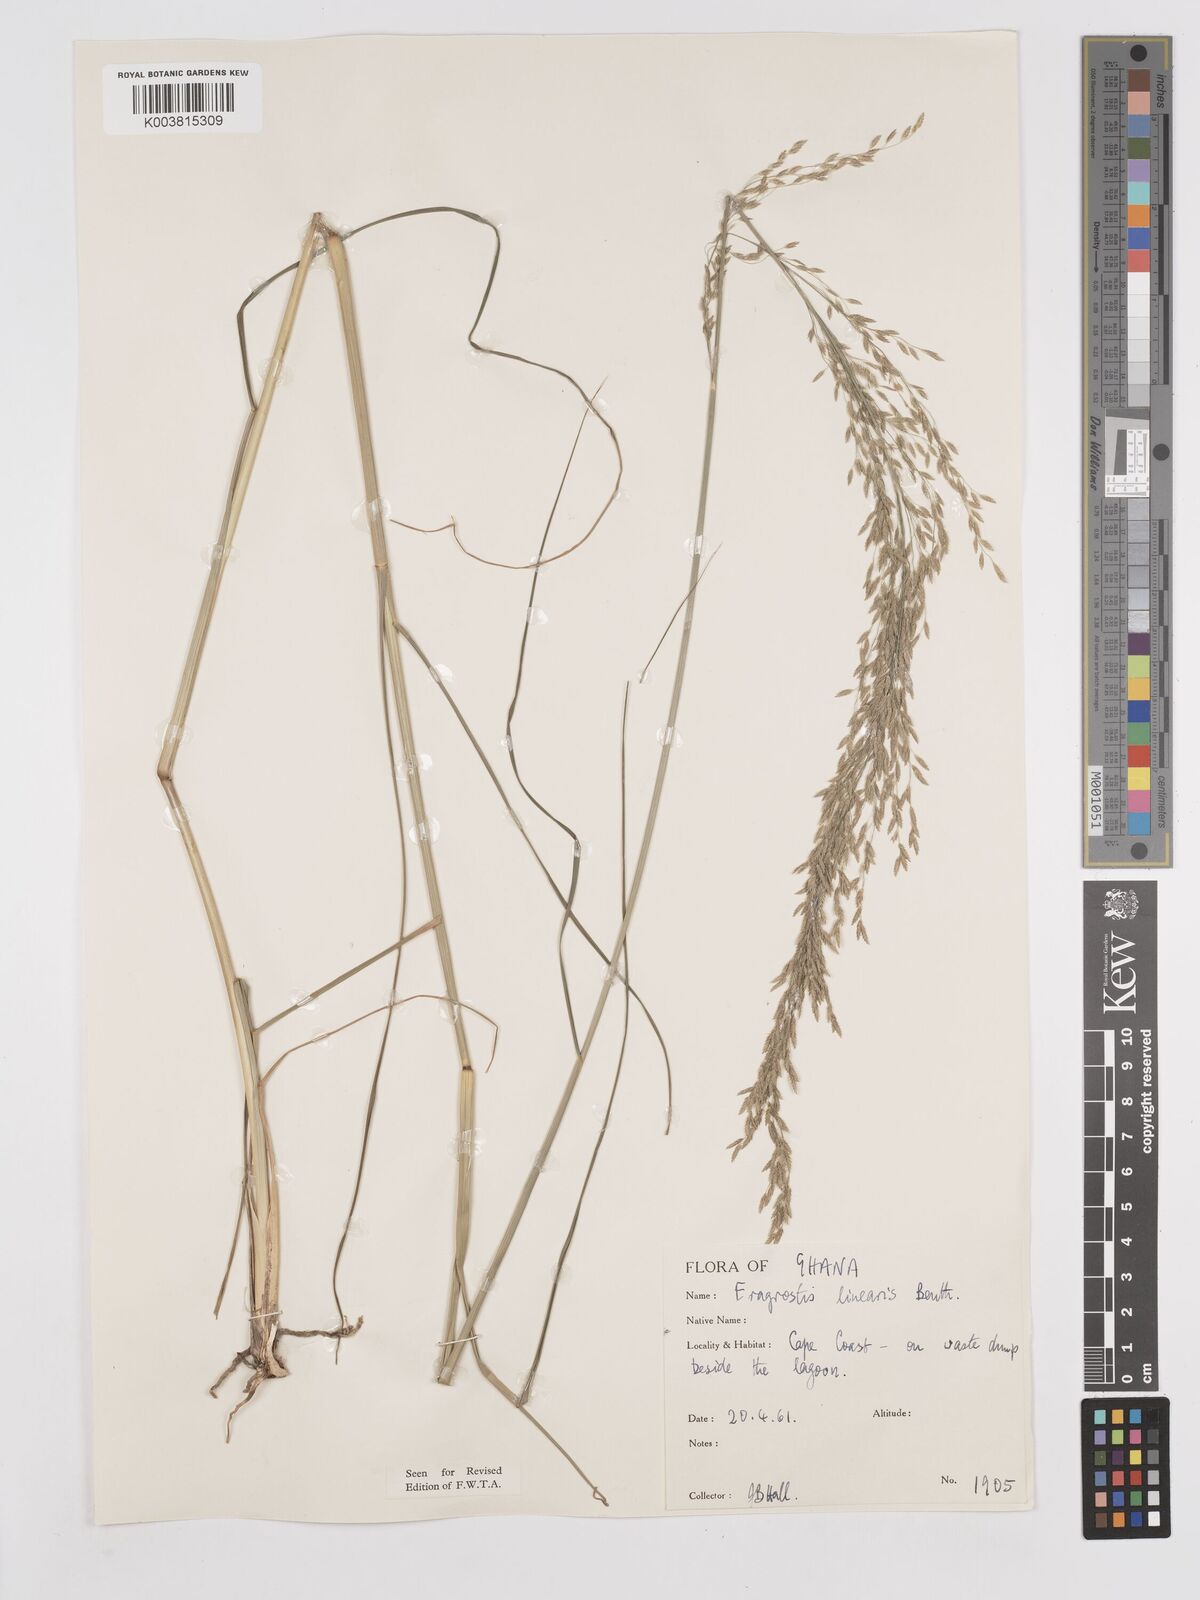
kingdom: Plantae
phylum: Tracheophyta
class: Liliopsida
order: Poales
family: Poaceae
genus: Eragrostis
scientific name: Eragrostis prolifera
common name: Dominican lovegrass
